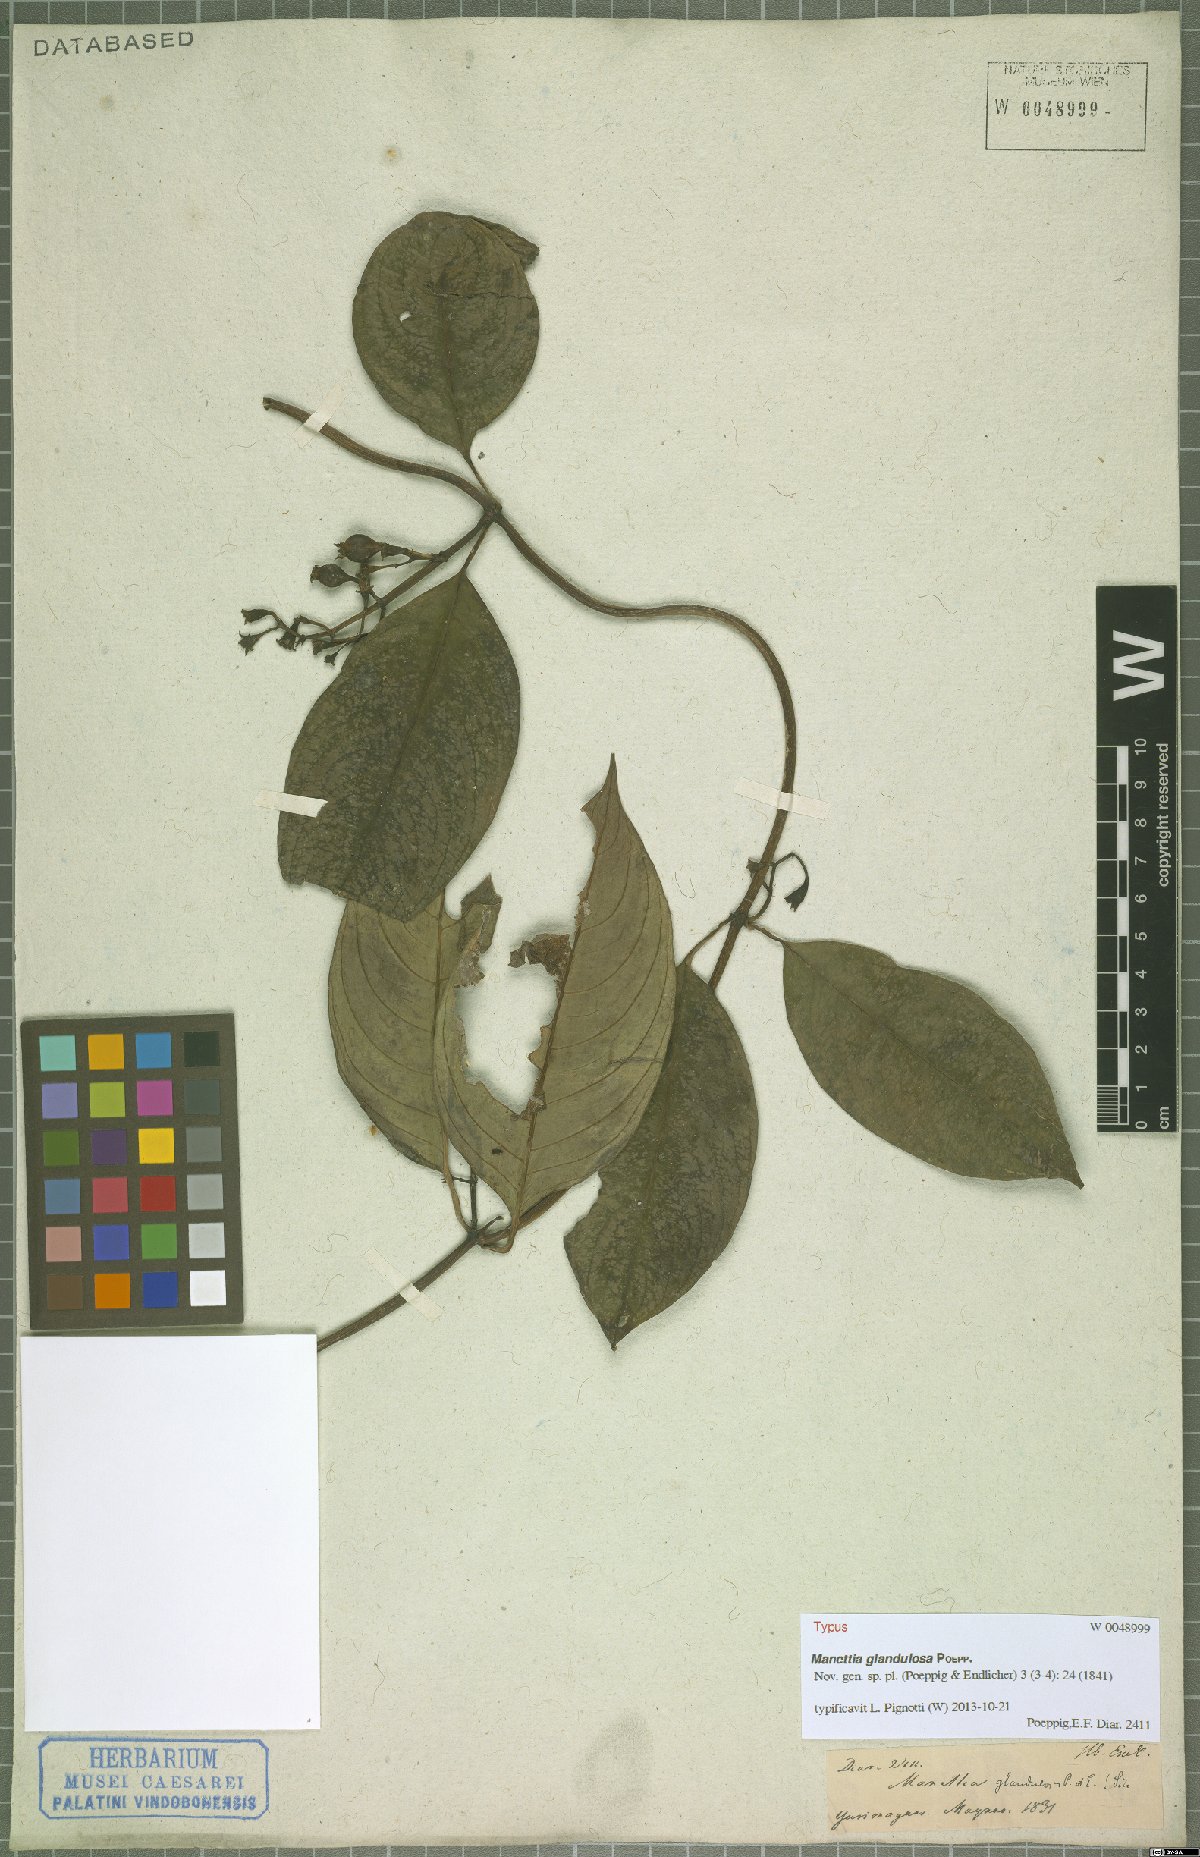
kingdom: Plantae
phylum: Tracheophyta
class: Magnoliopsida
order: Gentianales
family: Rubiaceae
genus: Manettia
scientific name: Manettia glandulosa
